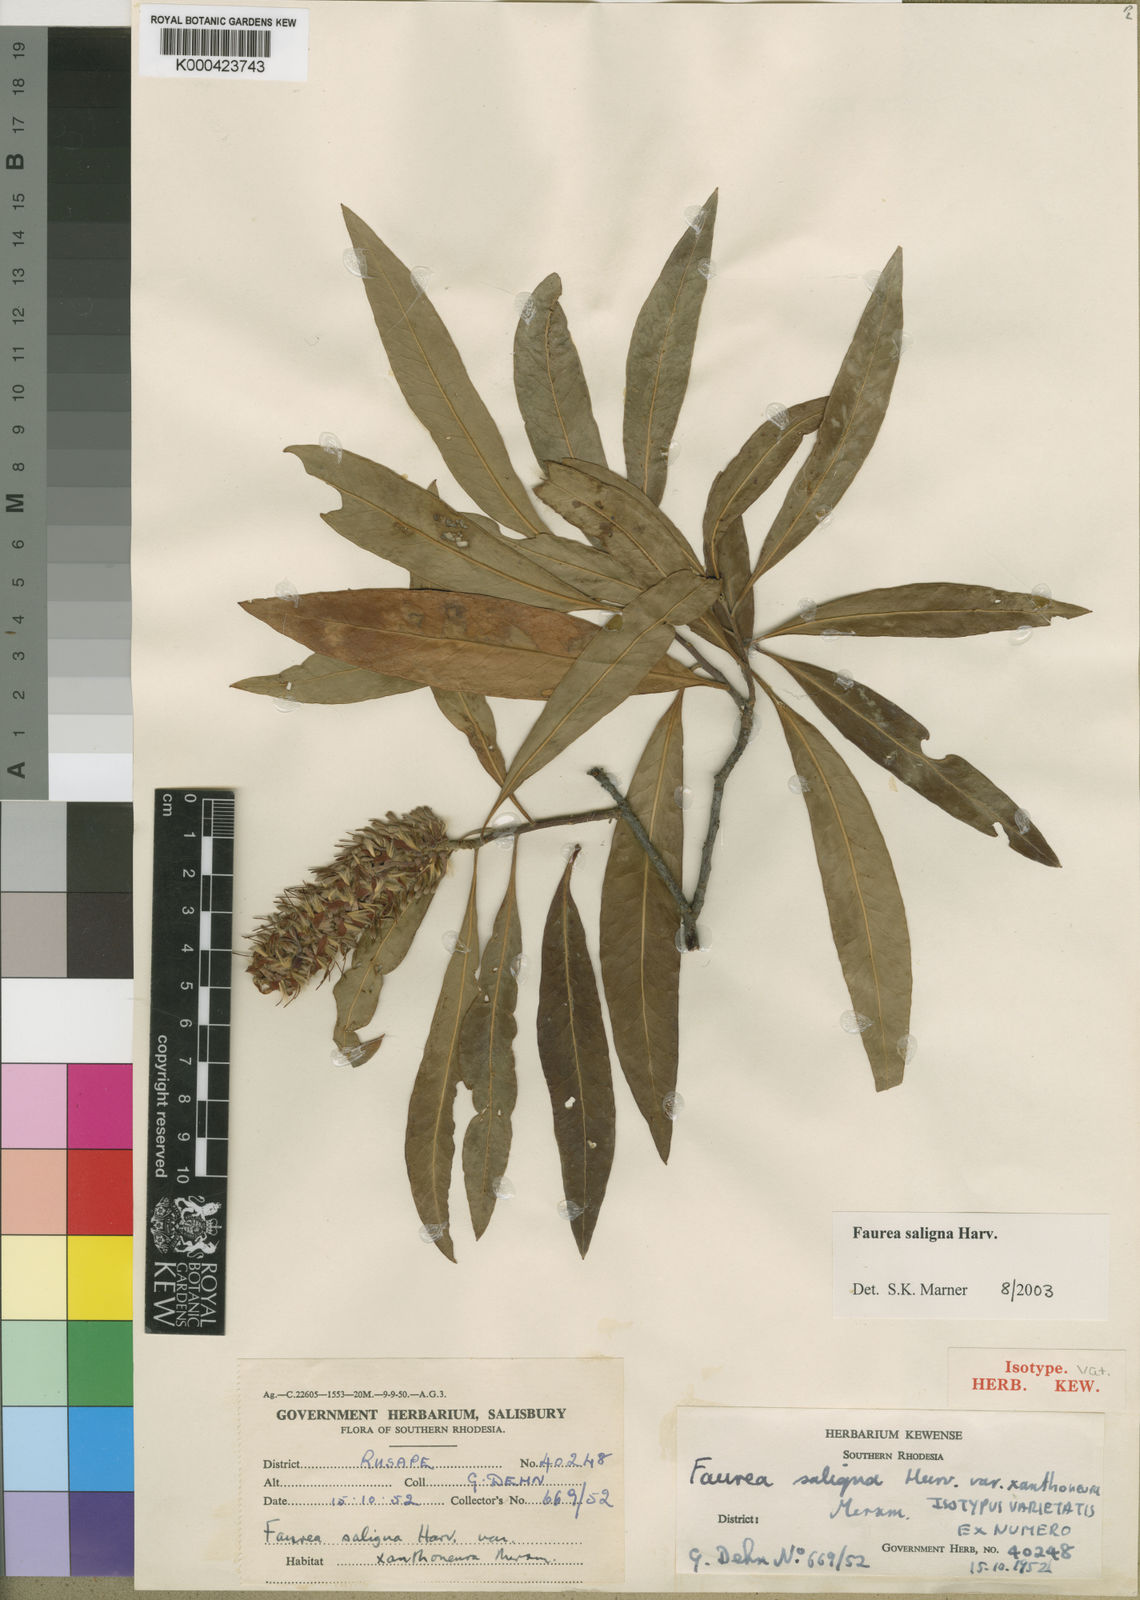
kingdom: Plantae
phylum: Tracheophyta
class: Magnoliopsida
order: Proteales
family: Proteaceae
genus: Faurea
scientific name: Faurea saligna
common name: African bean
